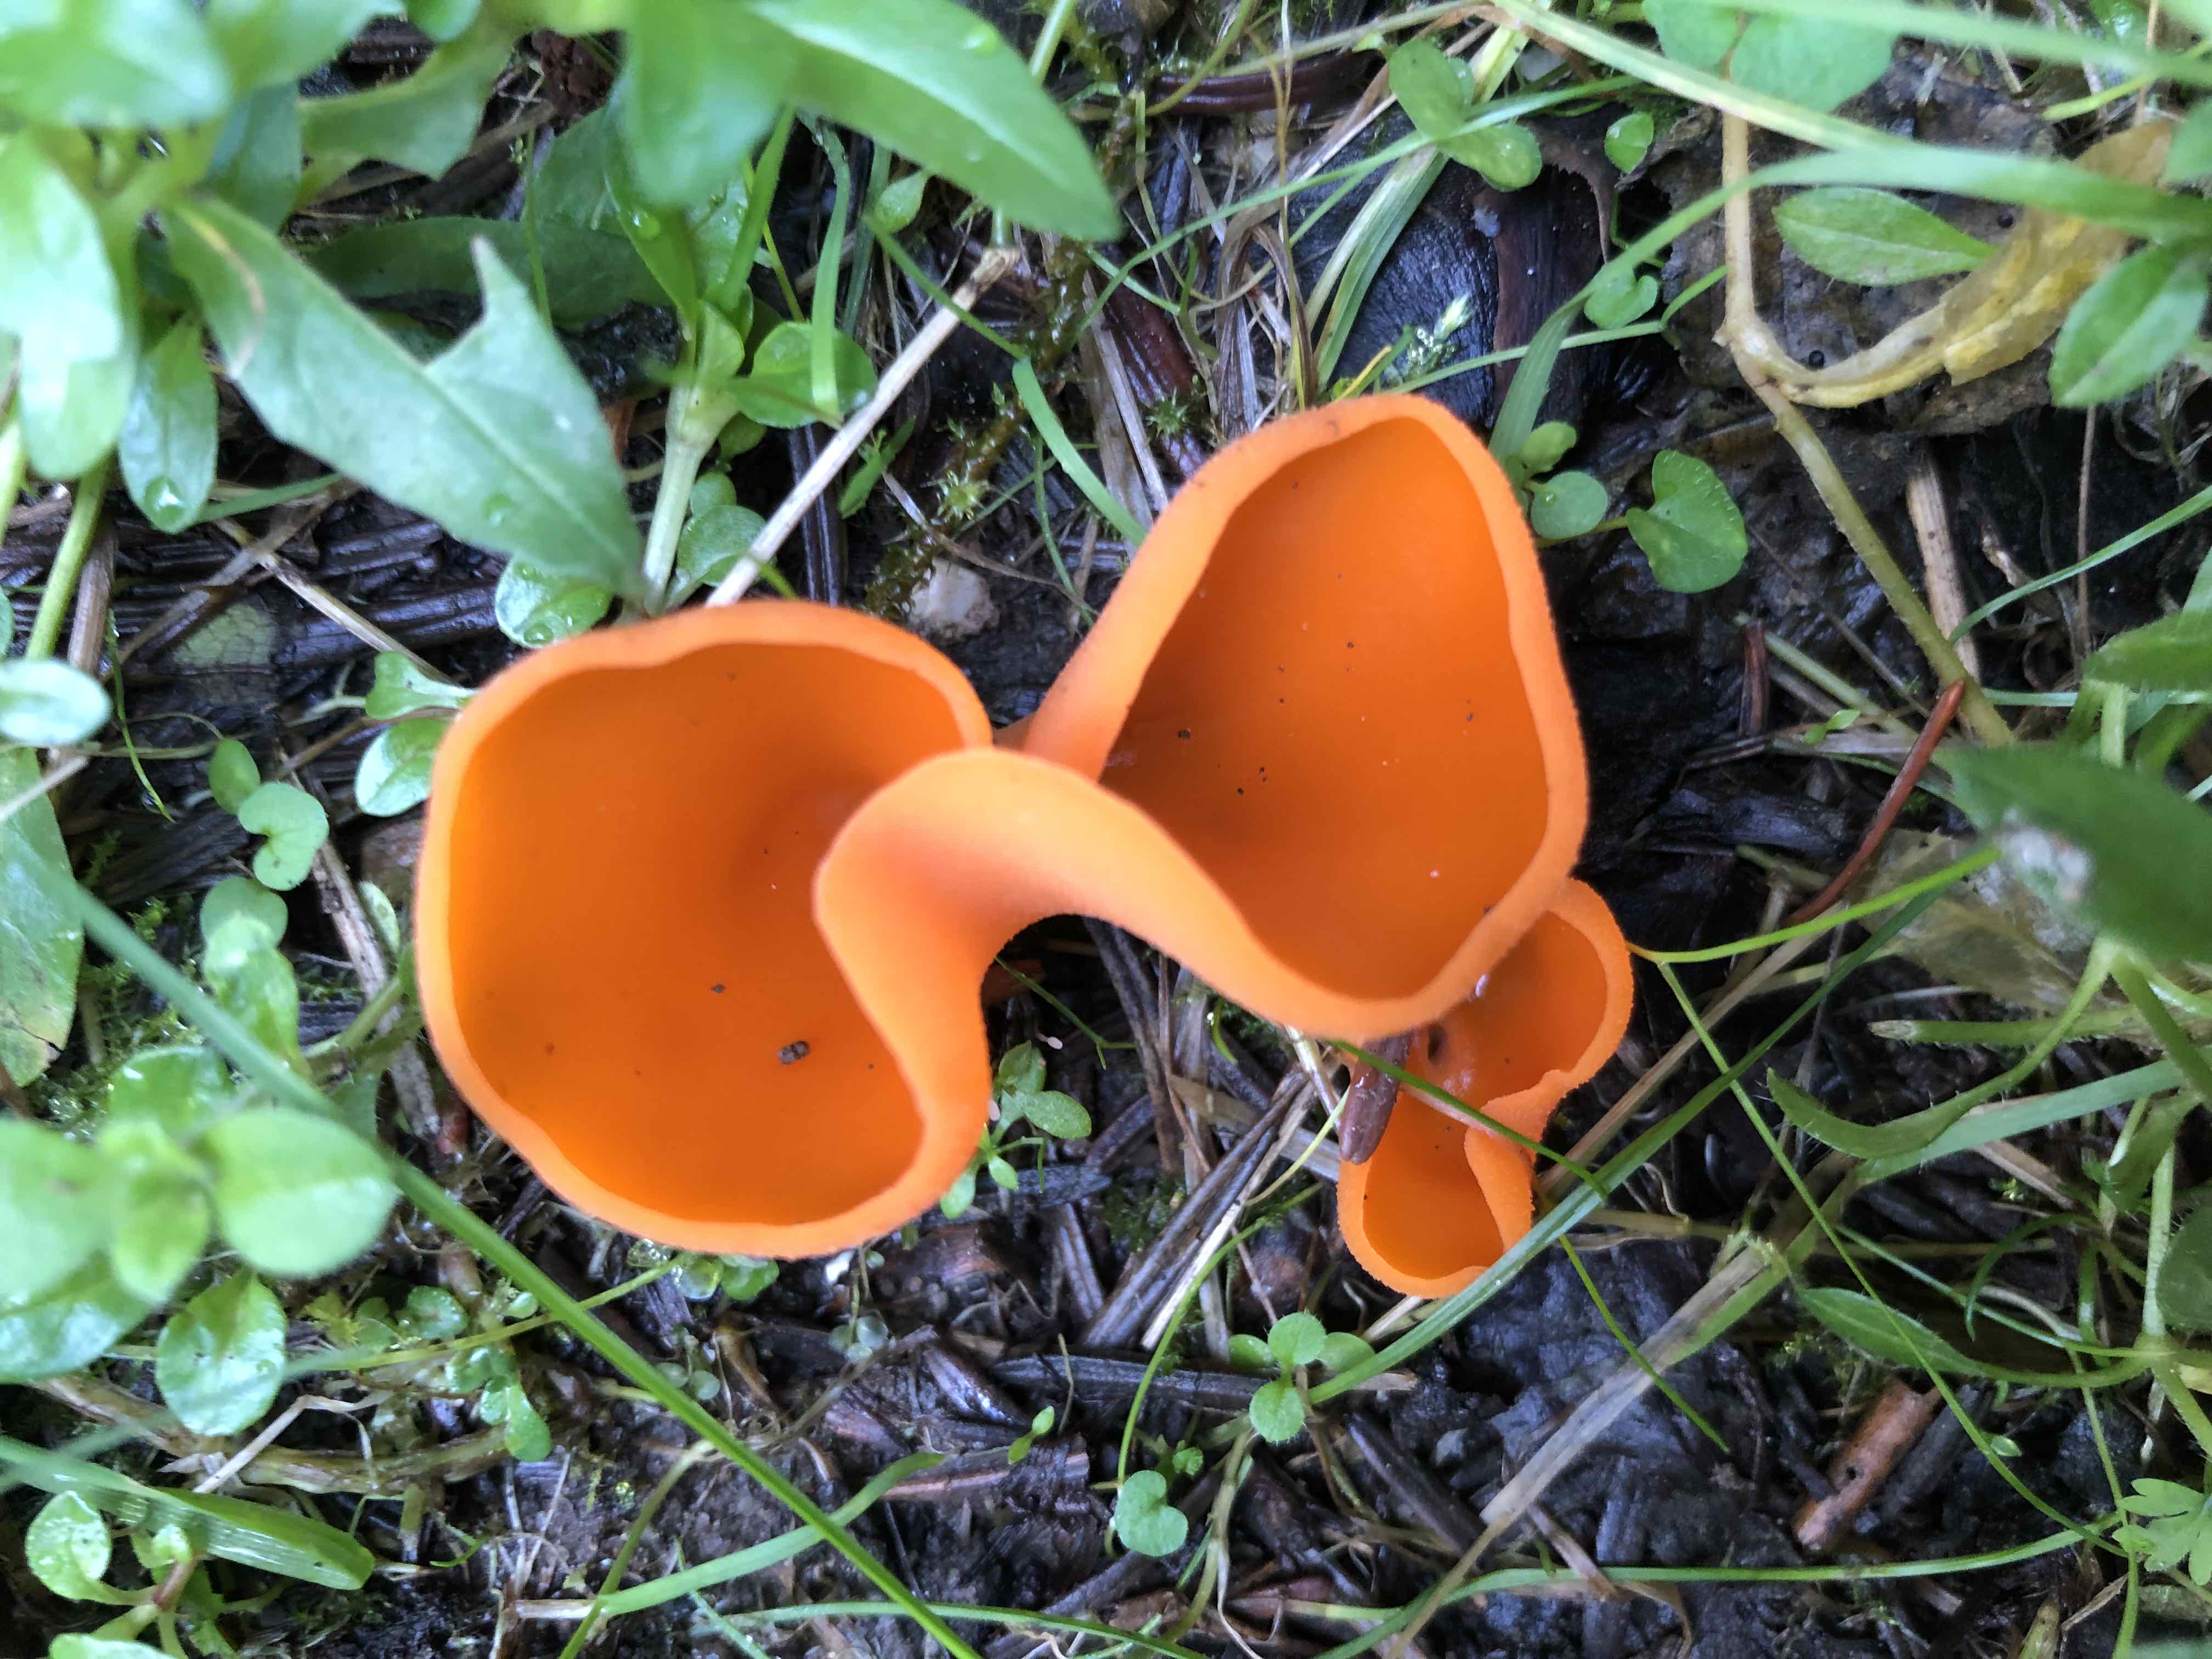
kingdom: Fungi
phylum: Ascomycota
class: Pezizomycetes
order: Pezizales
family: Pyronemataceae
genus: Aleuria
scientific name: Aleuria aurantia
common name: almindelig orangebæger
